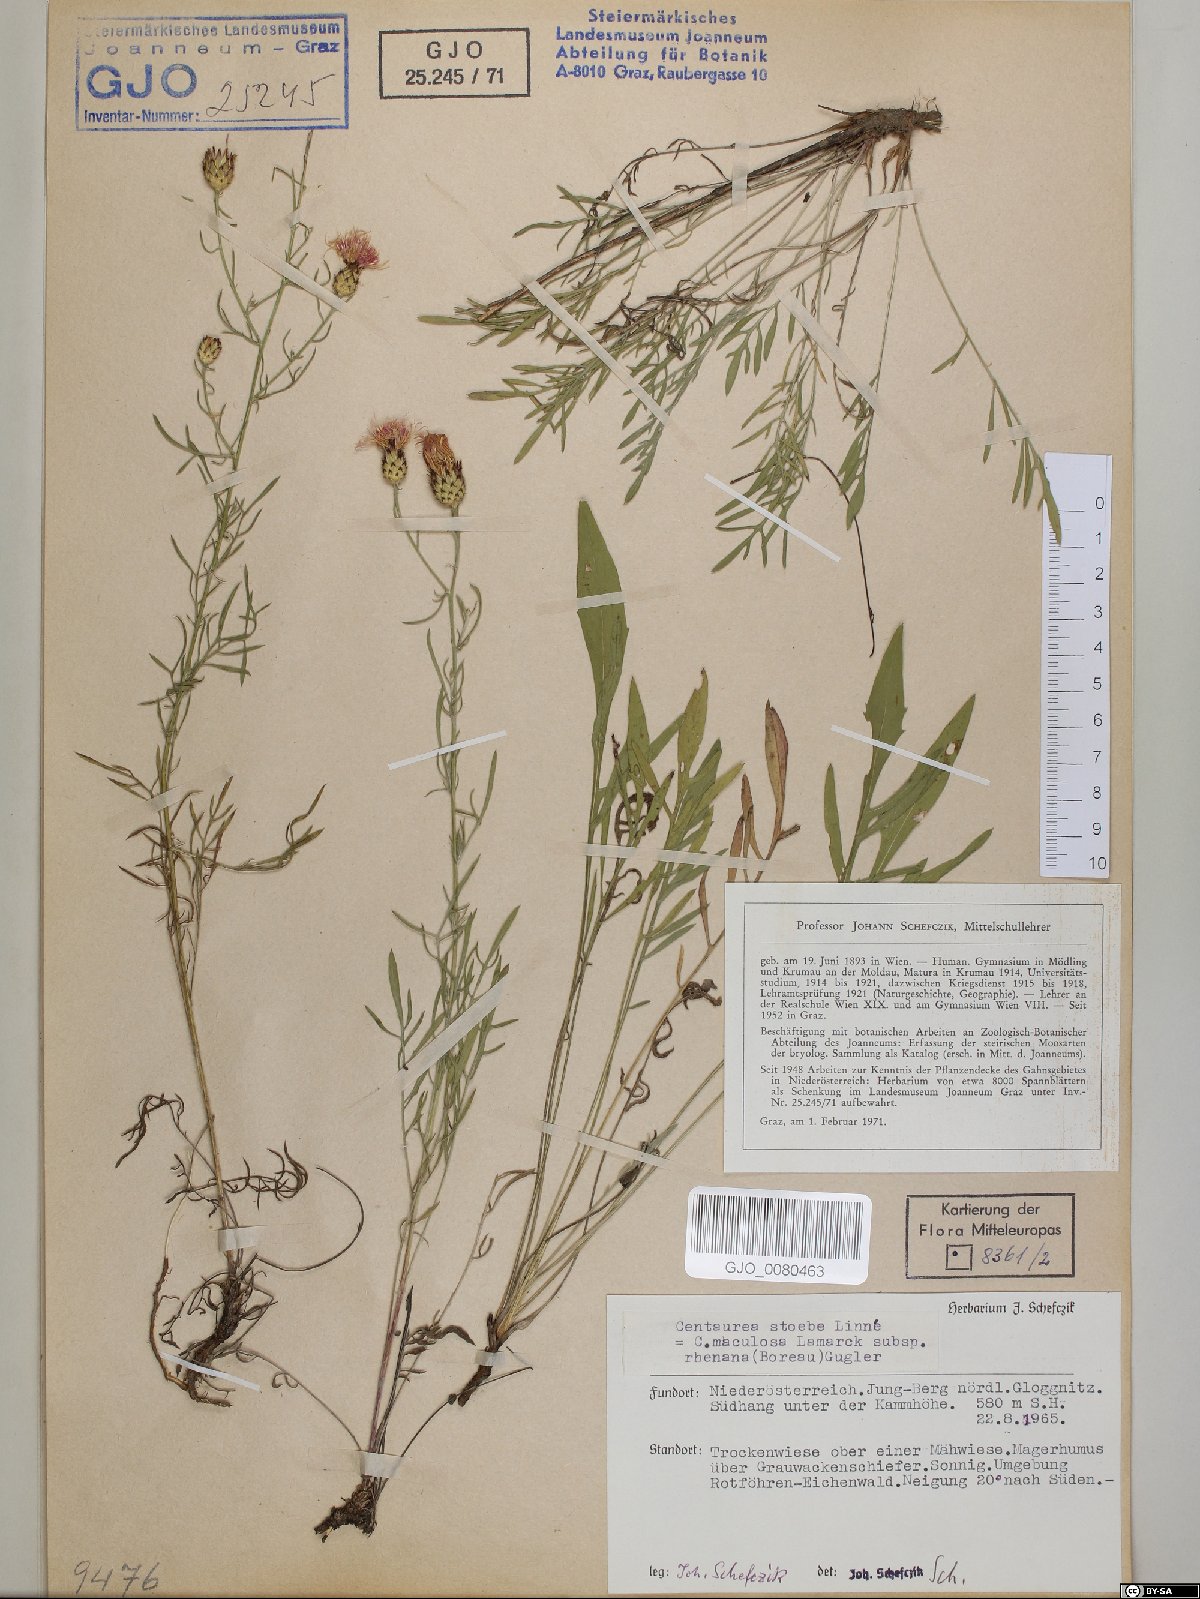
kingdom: Plantae
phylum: Tracheophyta
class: Magnoliopsida
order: Asterales
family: Asteraceae
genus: Centaurea
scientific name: Centaurea stoebe
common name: Spotted knapweed
